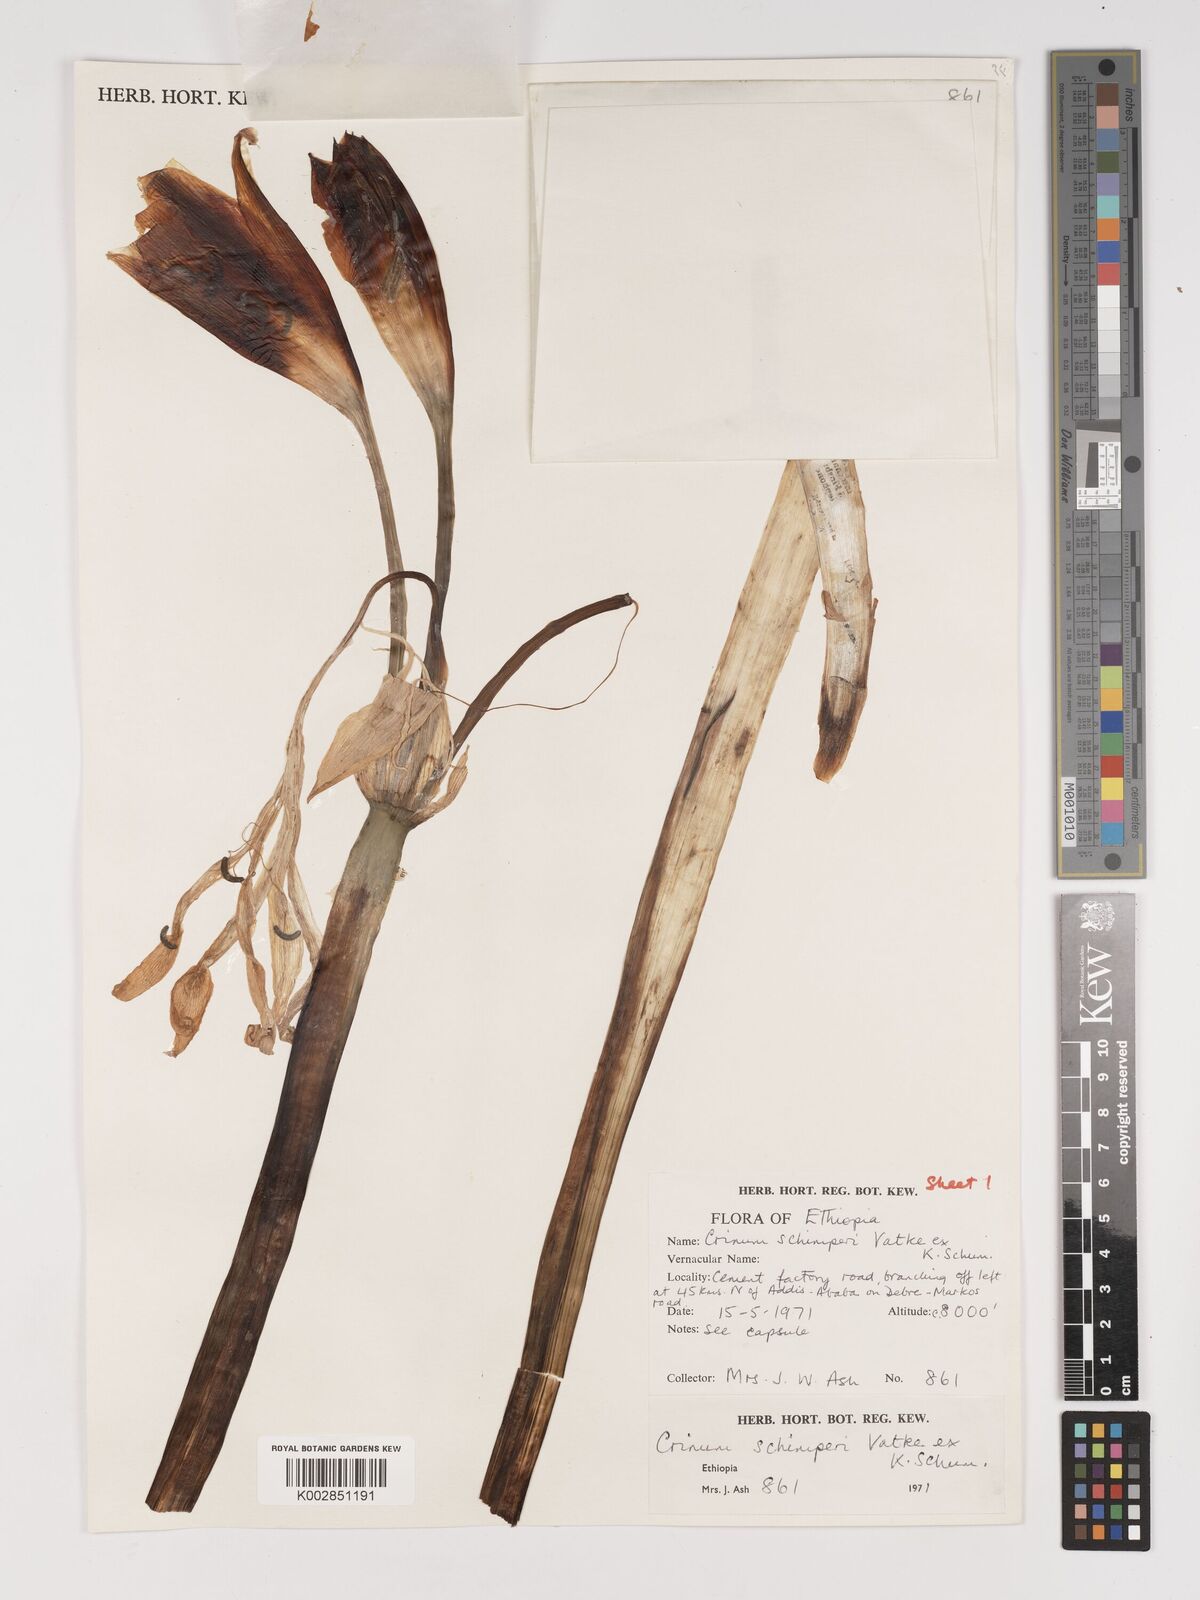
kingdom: Plantae
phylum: Tracheophyta
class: Liliopsida
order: Asparagales
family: Amaryllidaceae
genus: Crinum
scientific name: Crinum abyssinicum
